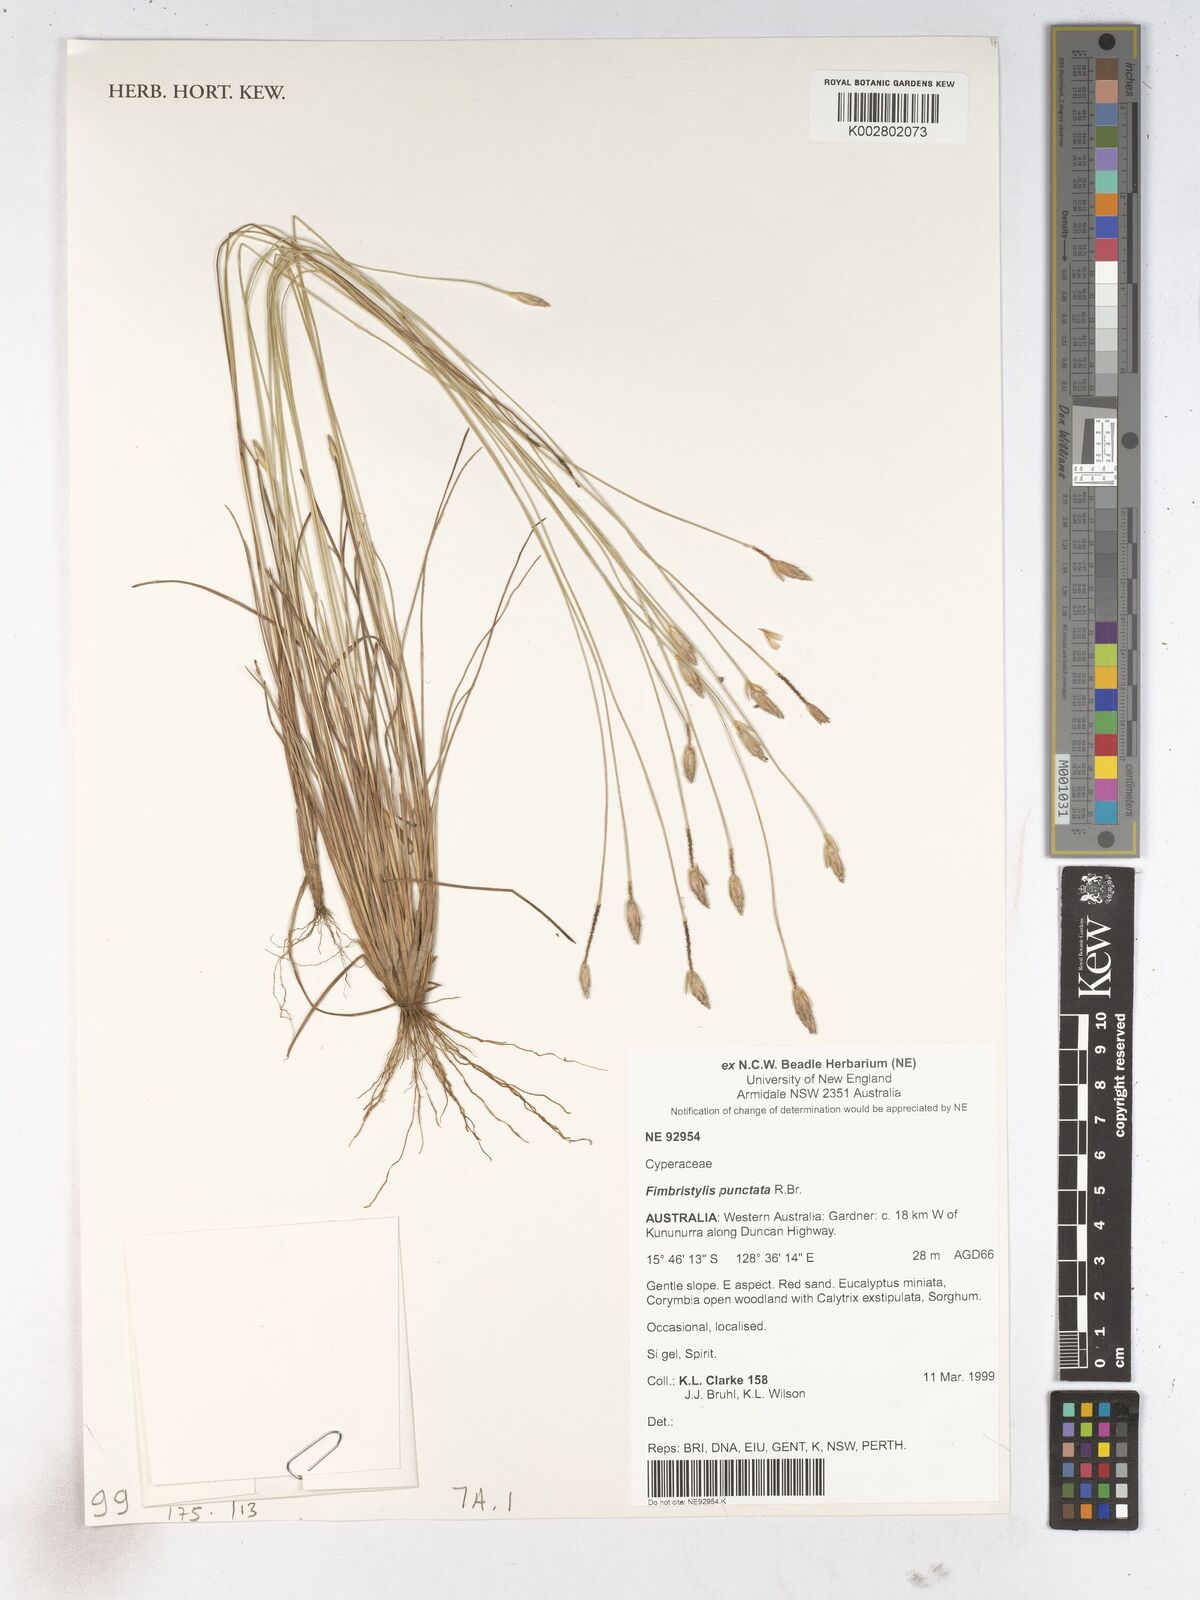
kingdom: Plantae
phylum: Tracheophyta
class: Liliopsida
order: Poales
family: Cyperaceae
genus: Fimbristylis
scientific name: Fimbristylis punctata
